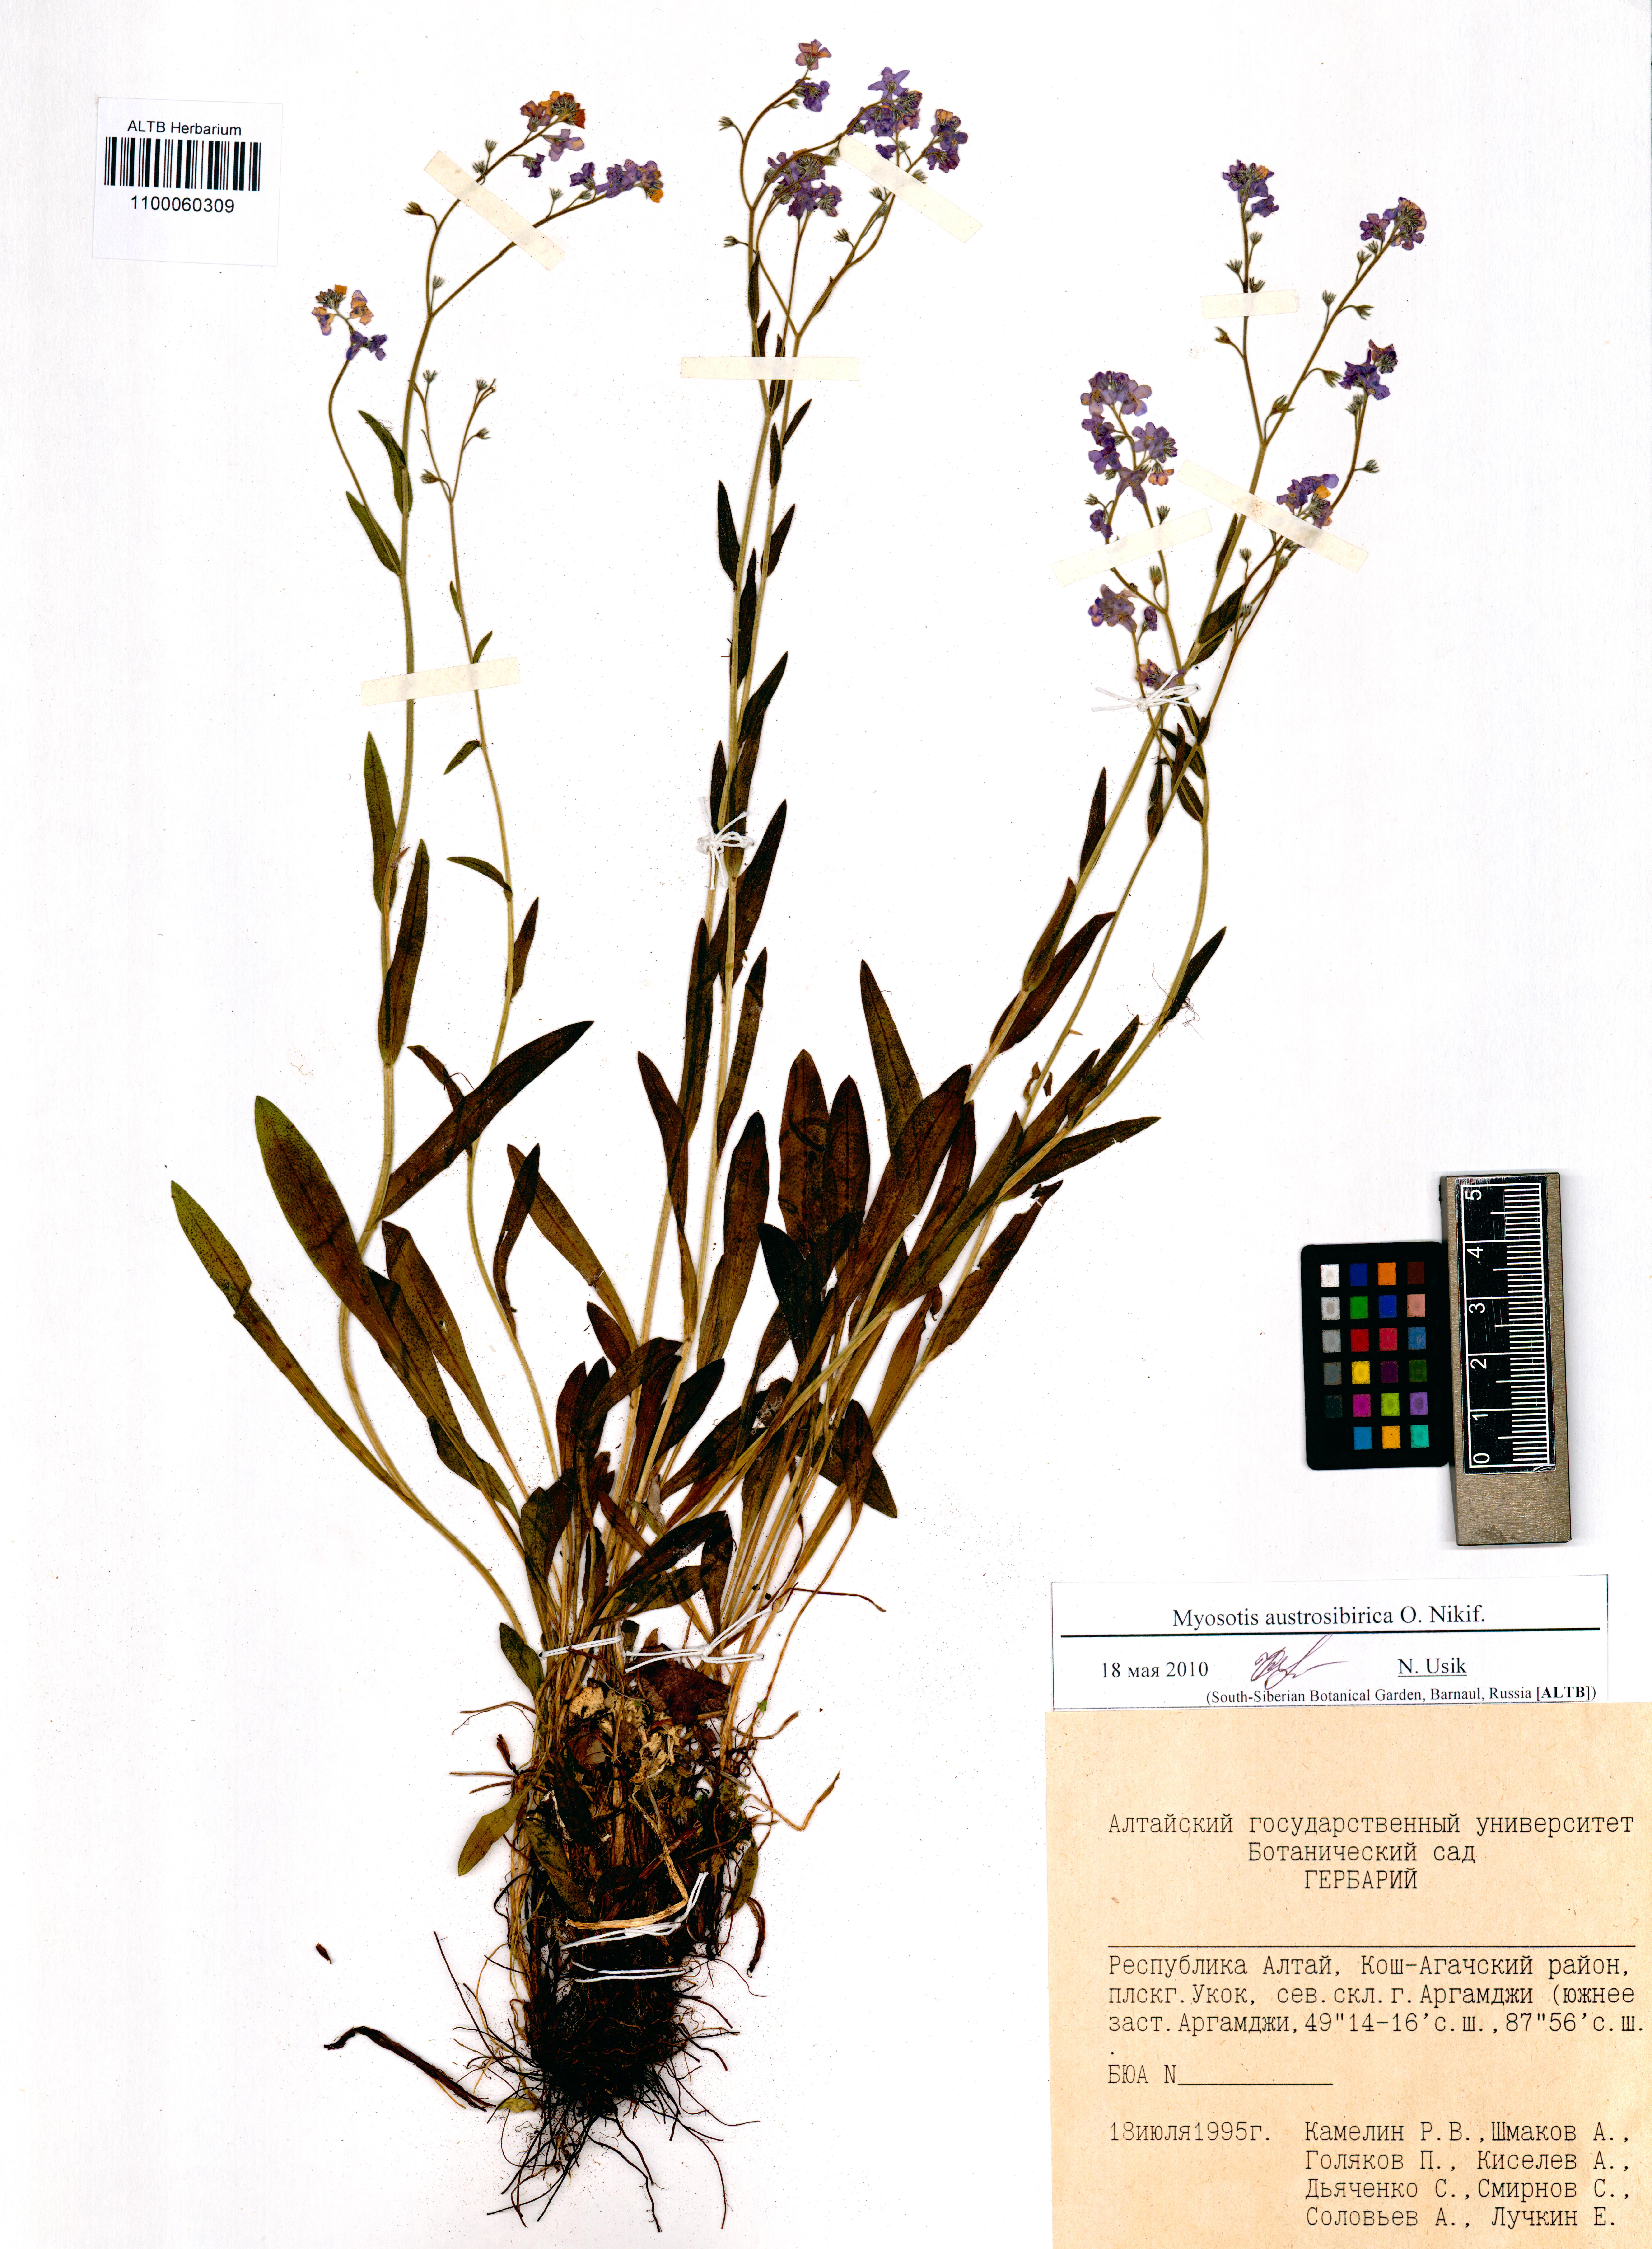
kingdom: Plantae
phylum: Tracheophyta
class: Magnoliopsida
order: Boraginales
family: Boraginaceae
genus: Myosotis
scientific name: Myosotis austrosibirica
